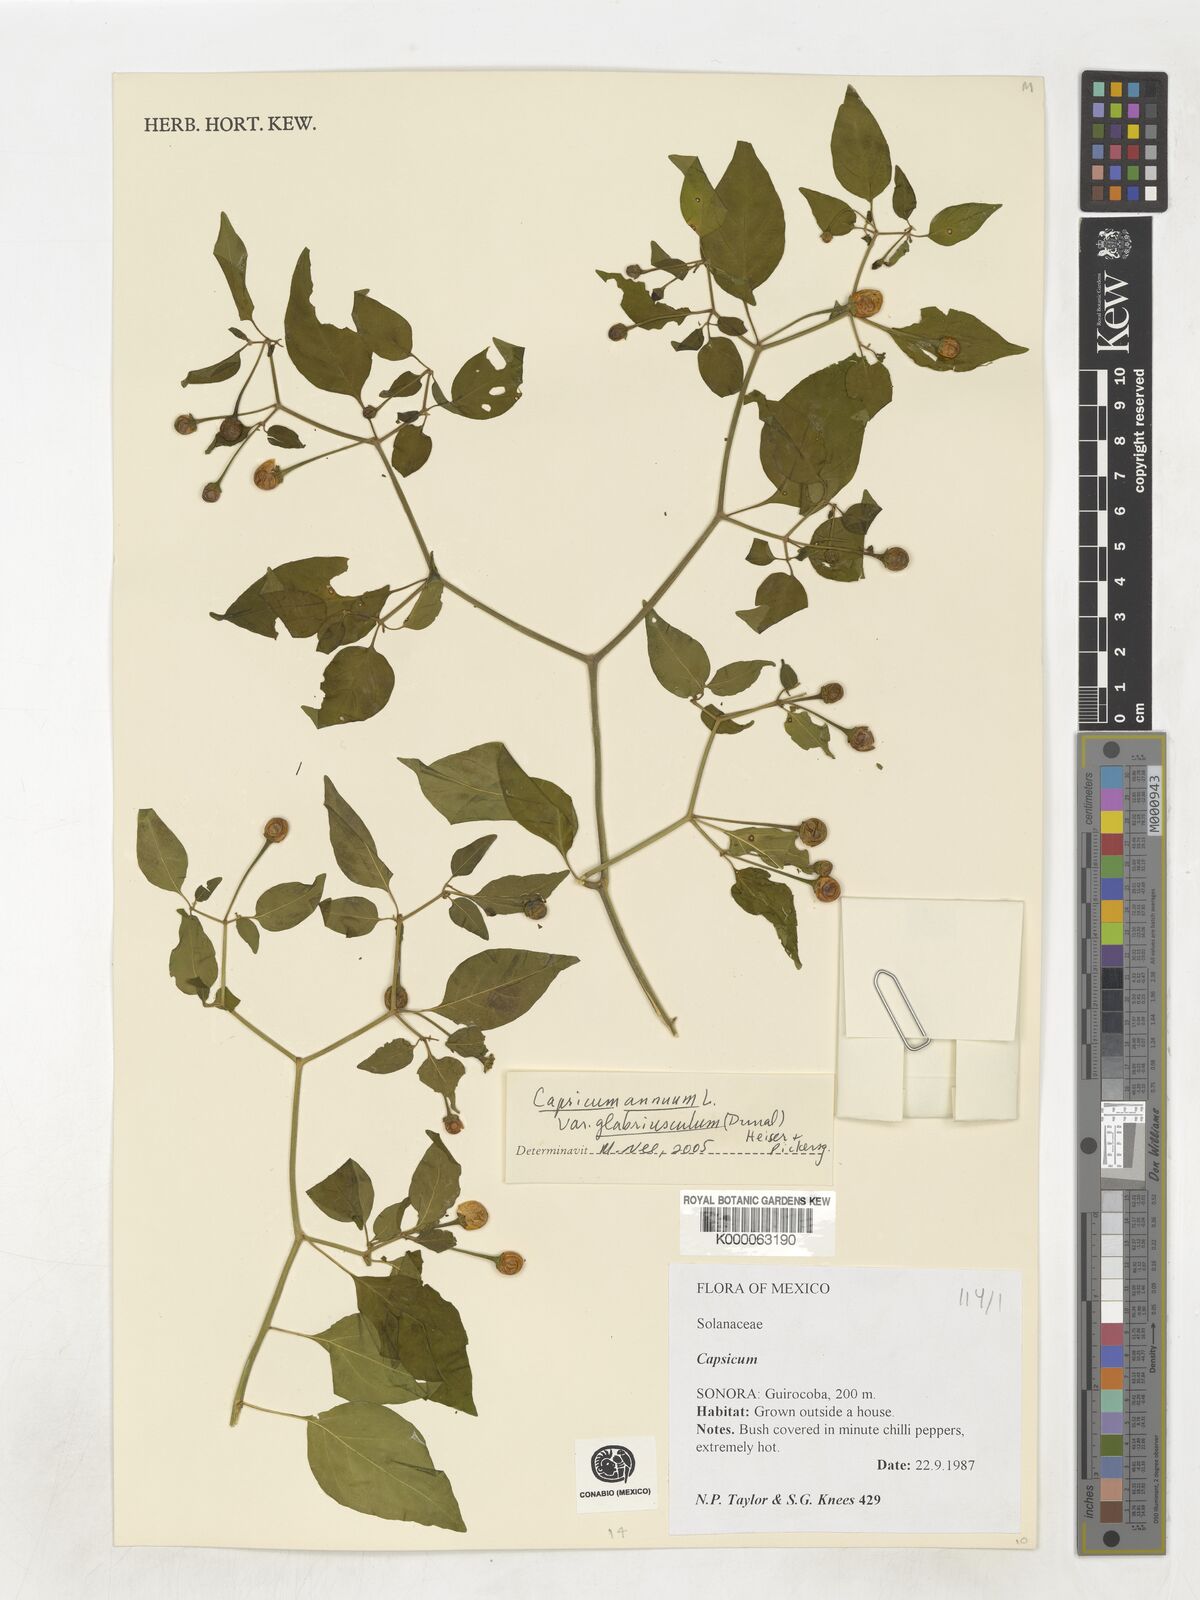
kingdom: Plantae
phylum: Tracheophyta
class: Magnoliopsida
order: Solanales
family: Solanaceae
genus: Capsicum
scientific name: Capsicum
